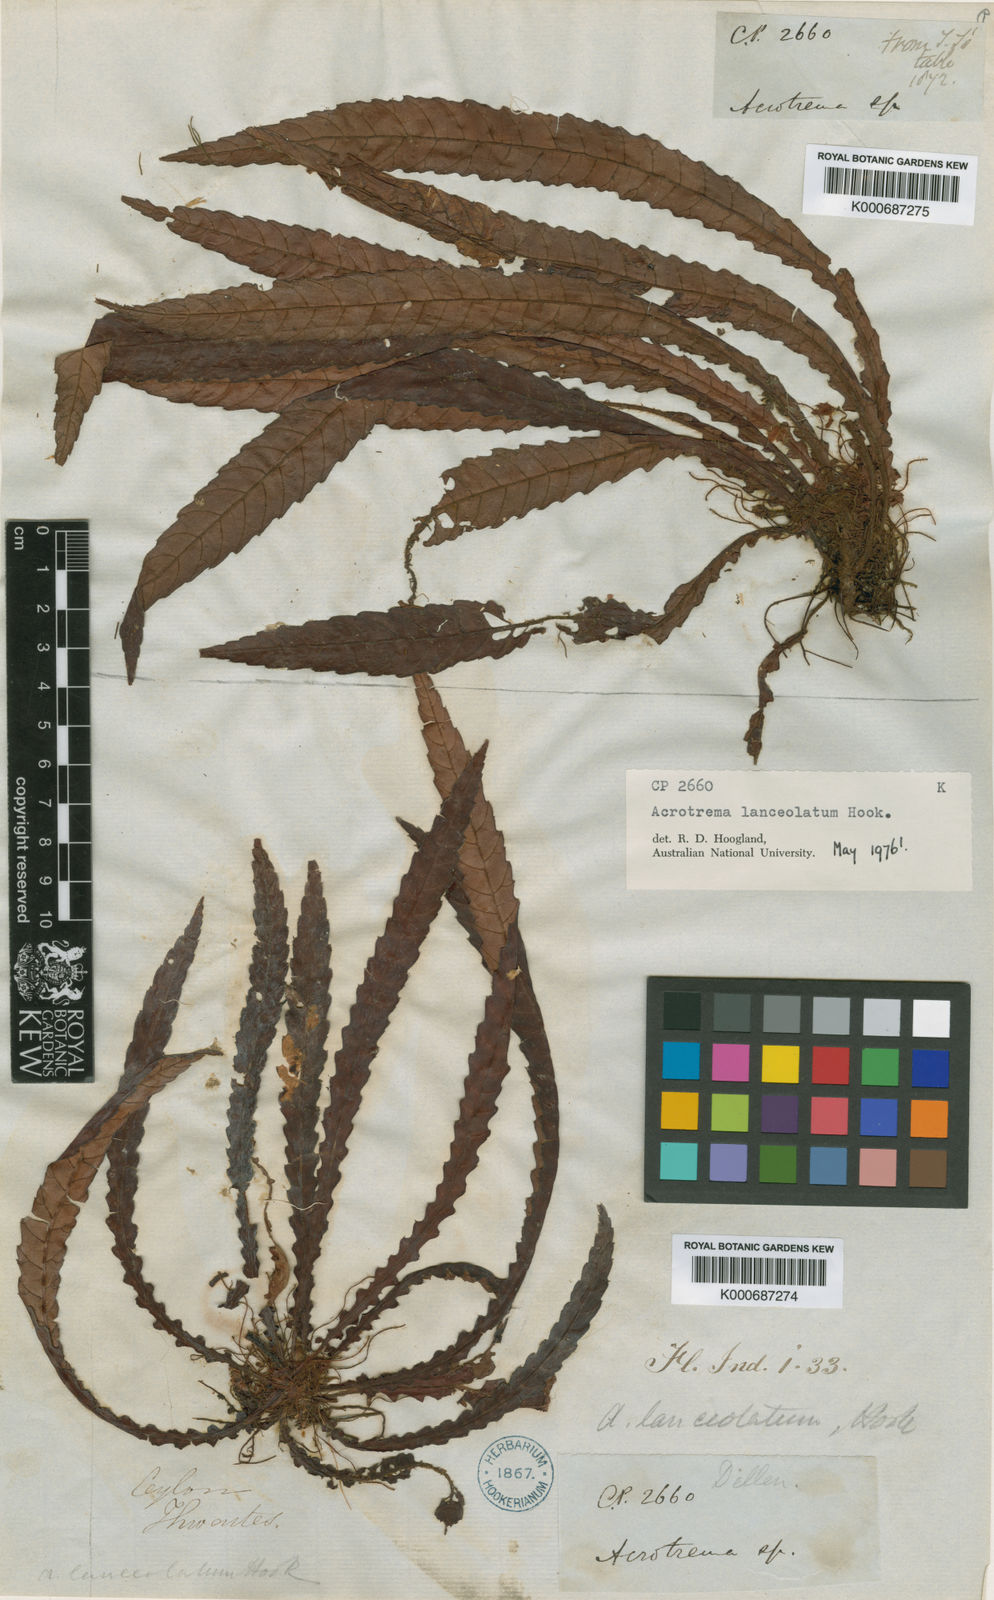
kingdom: Plantae
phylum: Tracheophyta
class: Magnoliopsida
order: Dilleniales
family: Dilleniaceae
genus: Acrotrema
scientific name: Acrotrema lanceolatum
